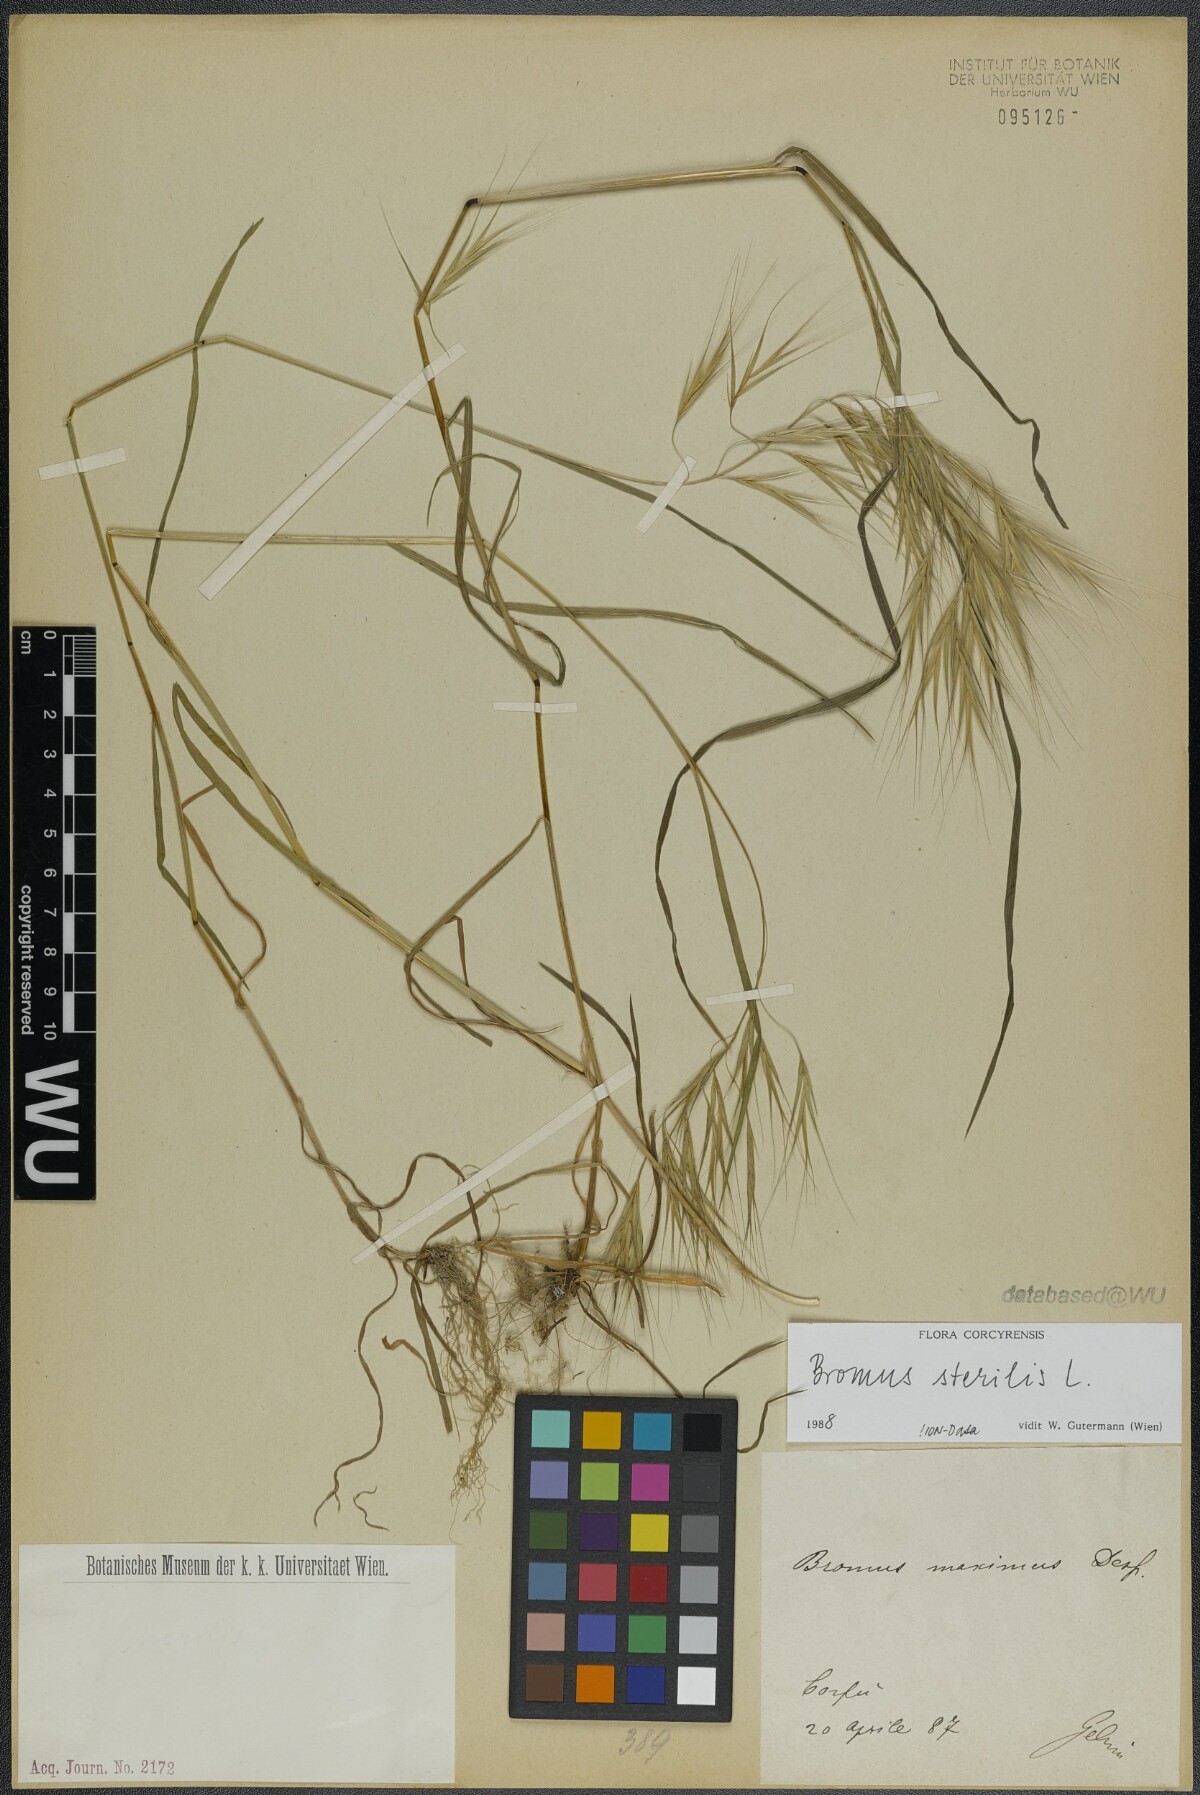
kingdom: Plantae
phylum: Tracheophyta
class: Liliopsida
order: Poales
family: Poaceae
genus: Bromus
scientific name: Bromus sterilis
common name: Poverty brome
